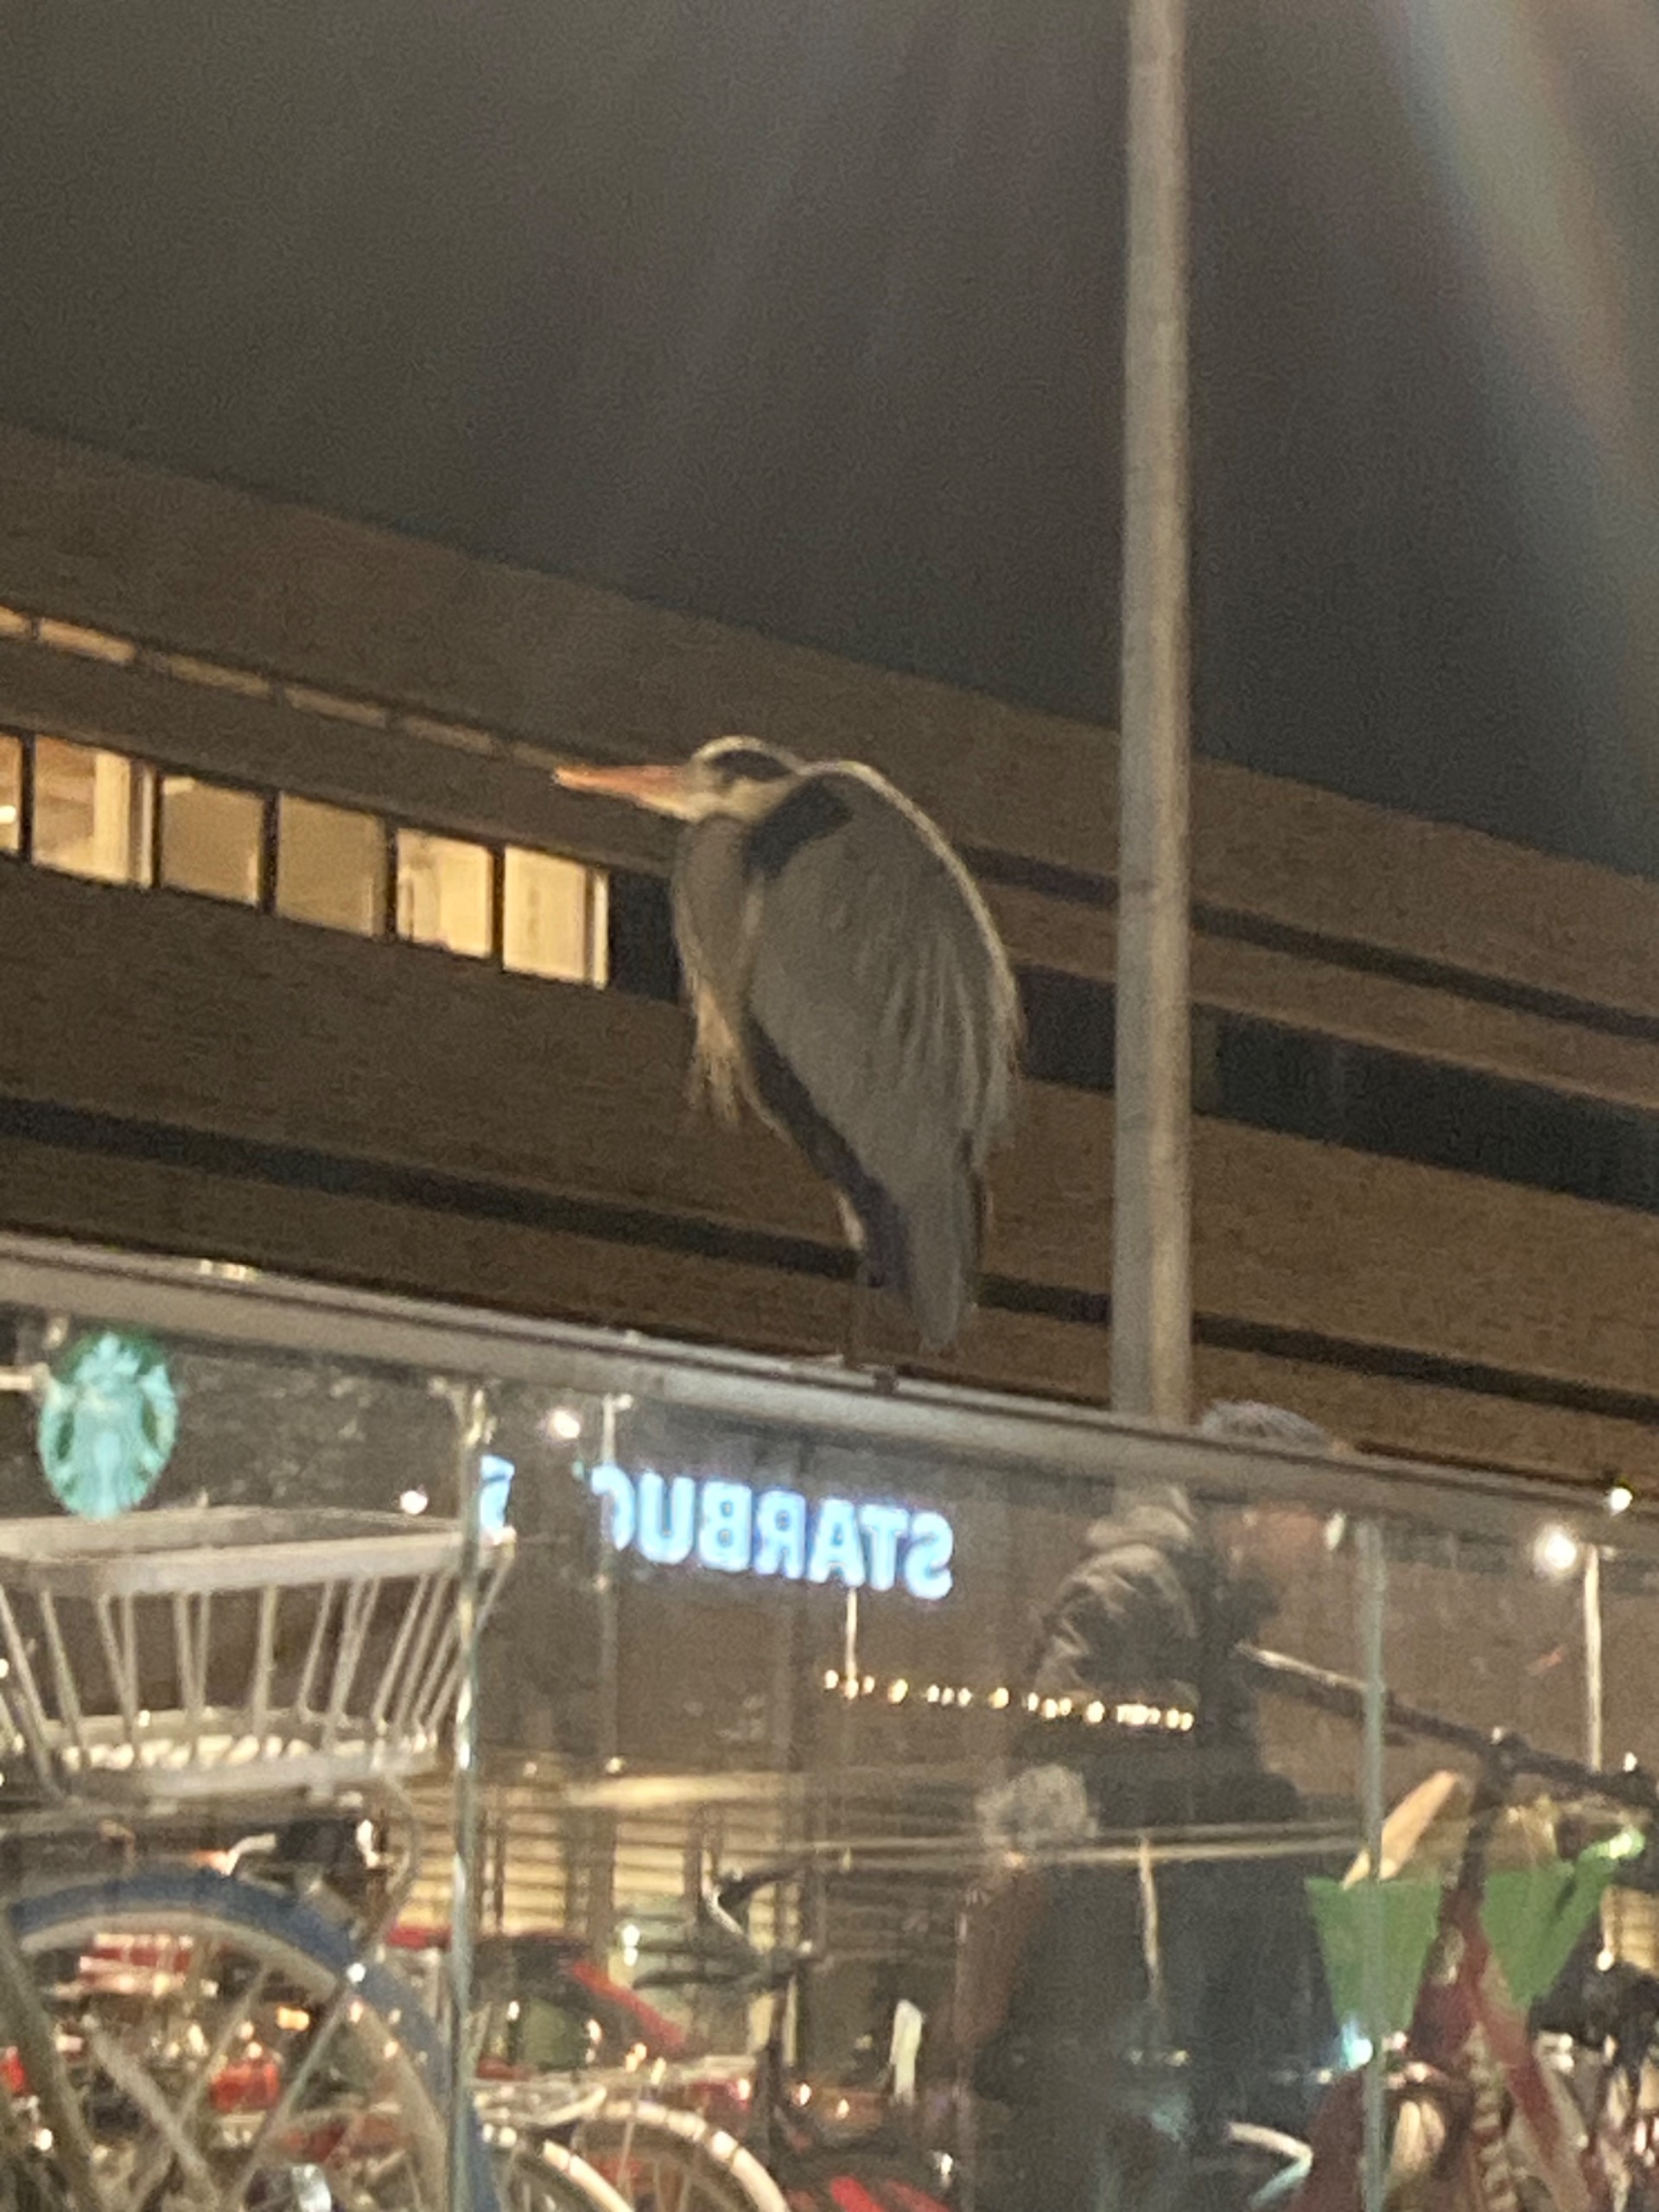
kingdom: Animalia
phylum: Chordata
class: Aves
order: Pelecaniformes
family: Ardeidae
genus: Ardea
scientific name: Ardea cinerea
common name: Fiskehejre
